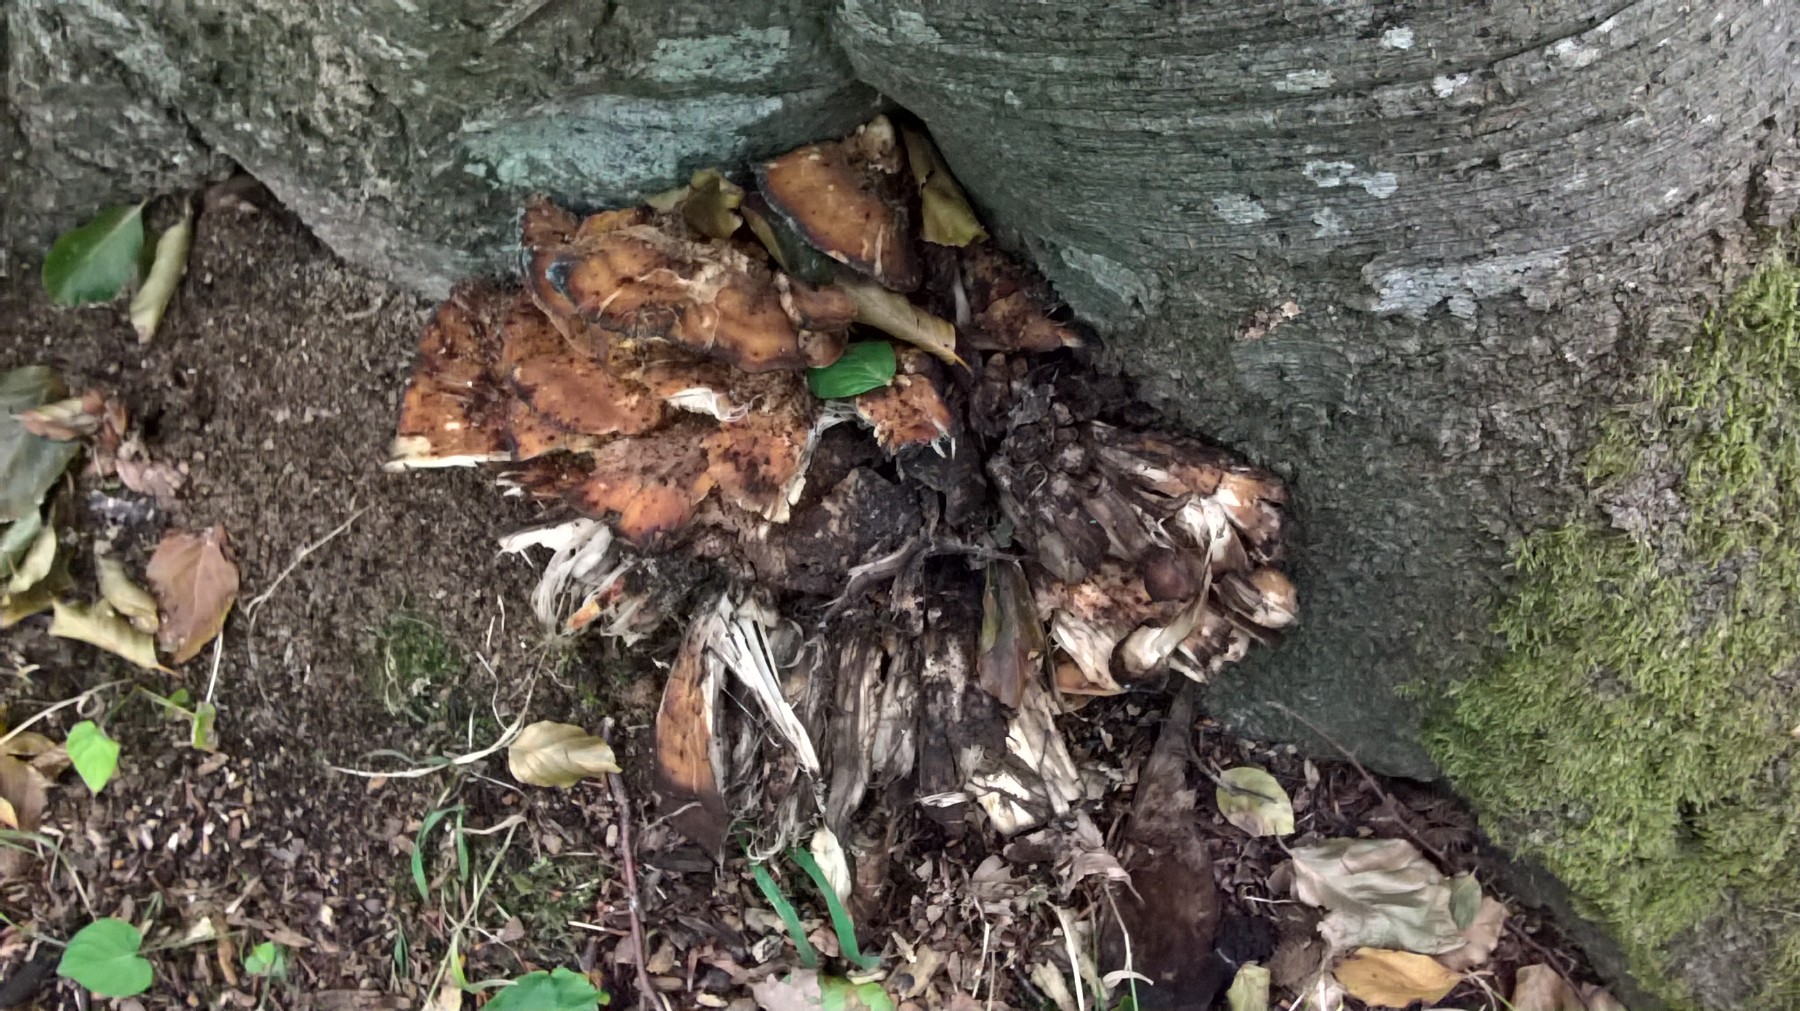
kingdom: Fungi
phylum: Basidiomycota
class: Agaricomycetes
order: Polyporales
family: Meripilaceae
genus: Meripilus
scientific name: Meripilus giganteus
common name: kæmpeporesvamp
